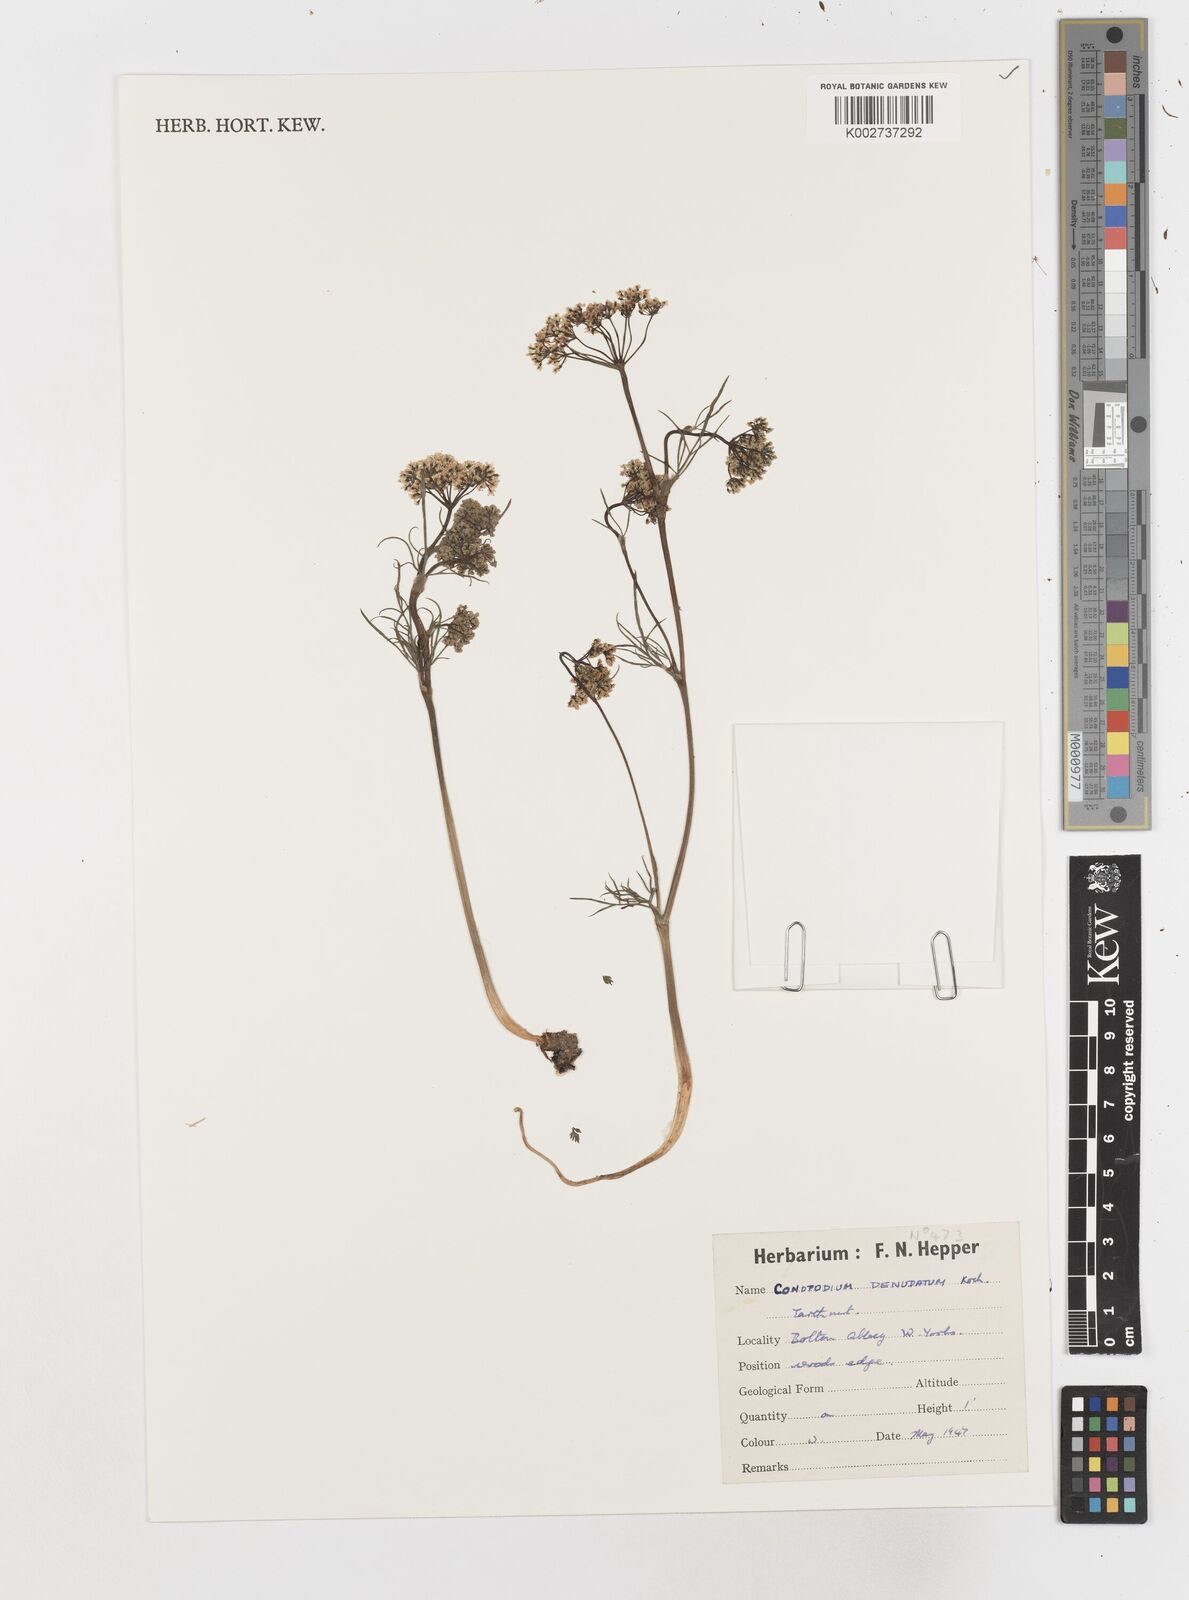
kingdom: Plantae
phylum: Tracheophyta
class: Magnoliopsida
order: Apiales
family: Apiaceae
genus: Conopodium
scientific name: Conopodium
